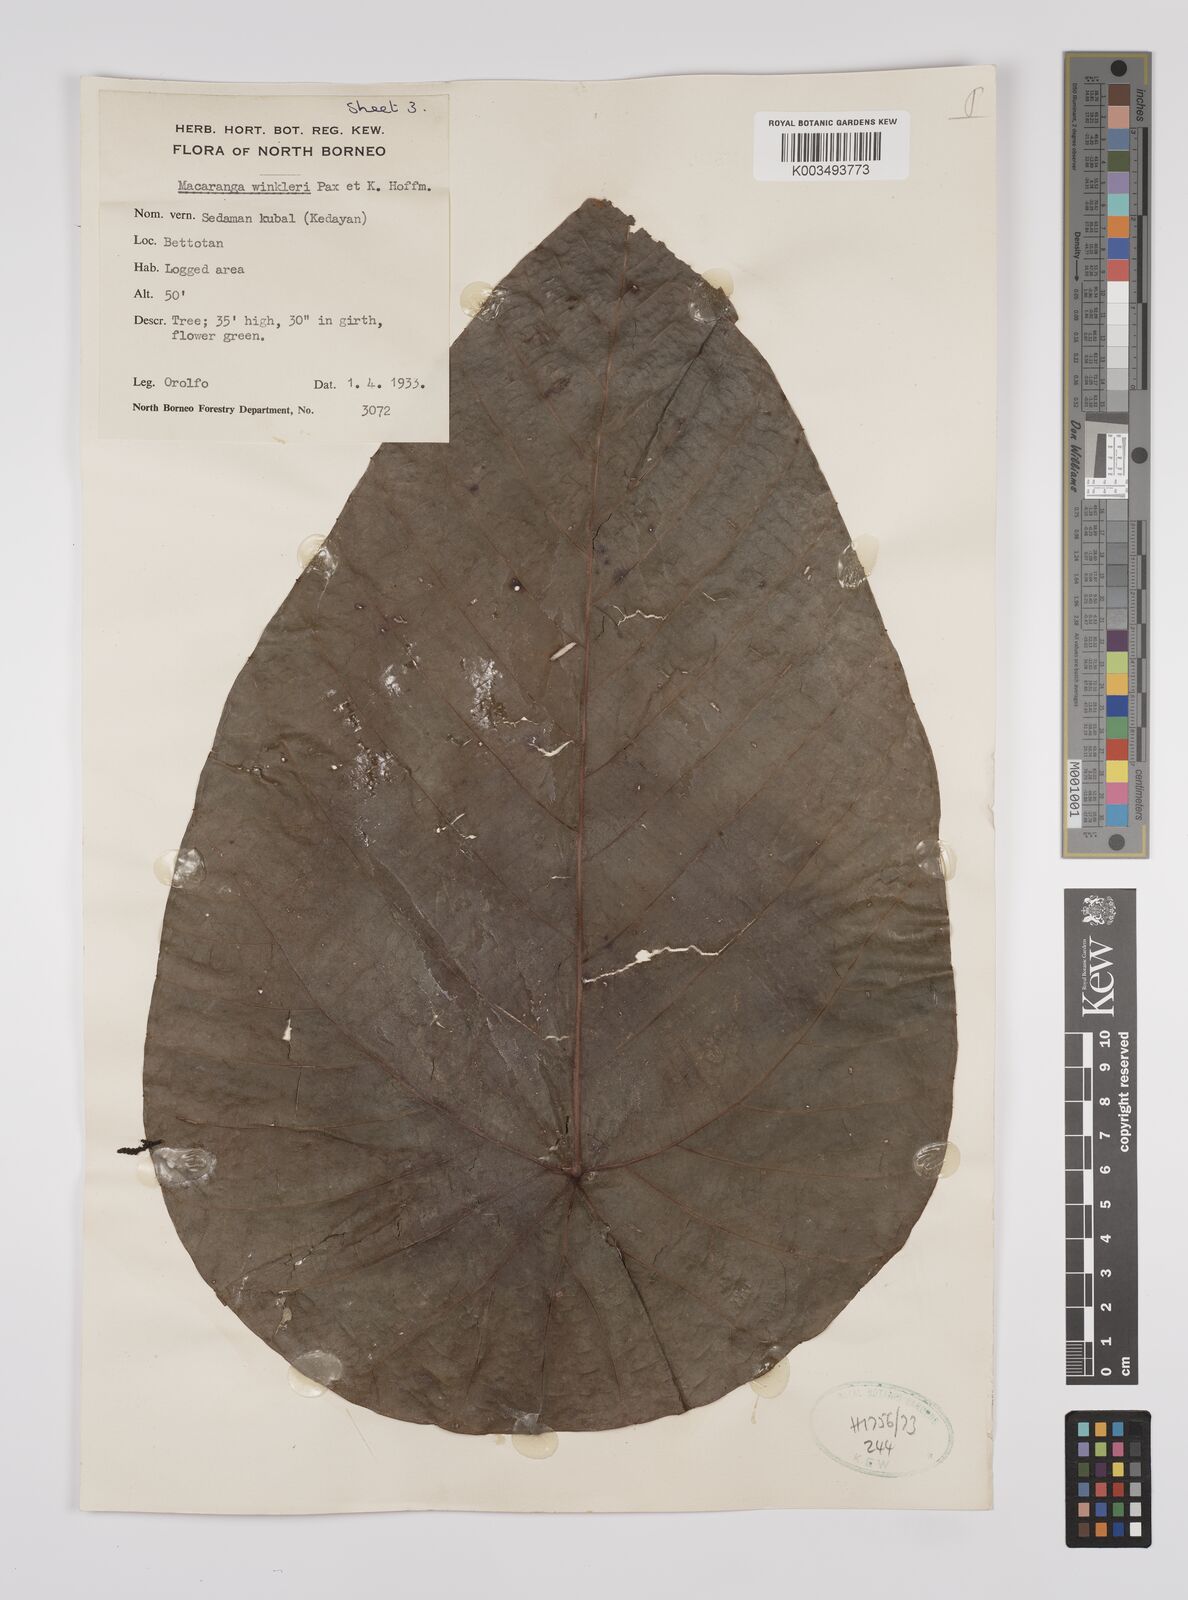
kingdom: Plantae
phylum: Tracheophyta
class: Magnoliopsida
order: Malpighiales
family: Euphorbiaceae
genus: Macaranga
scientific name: Macaranga winkleri
